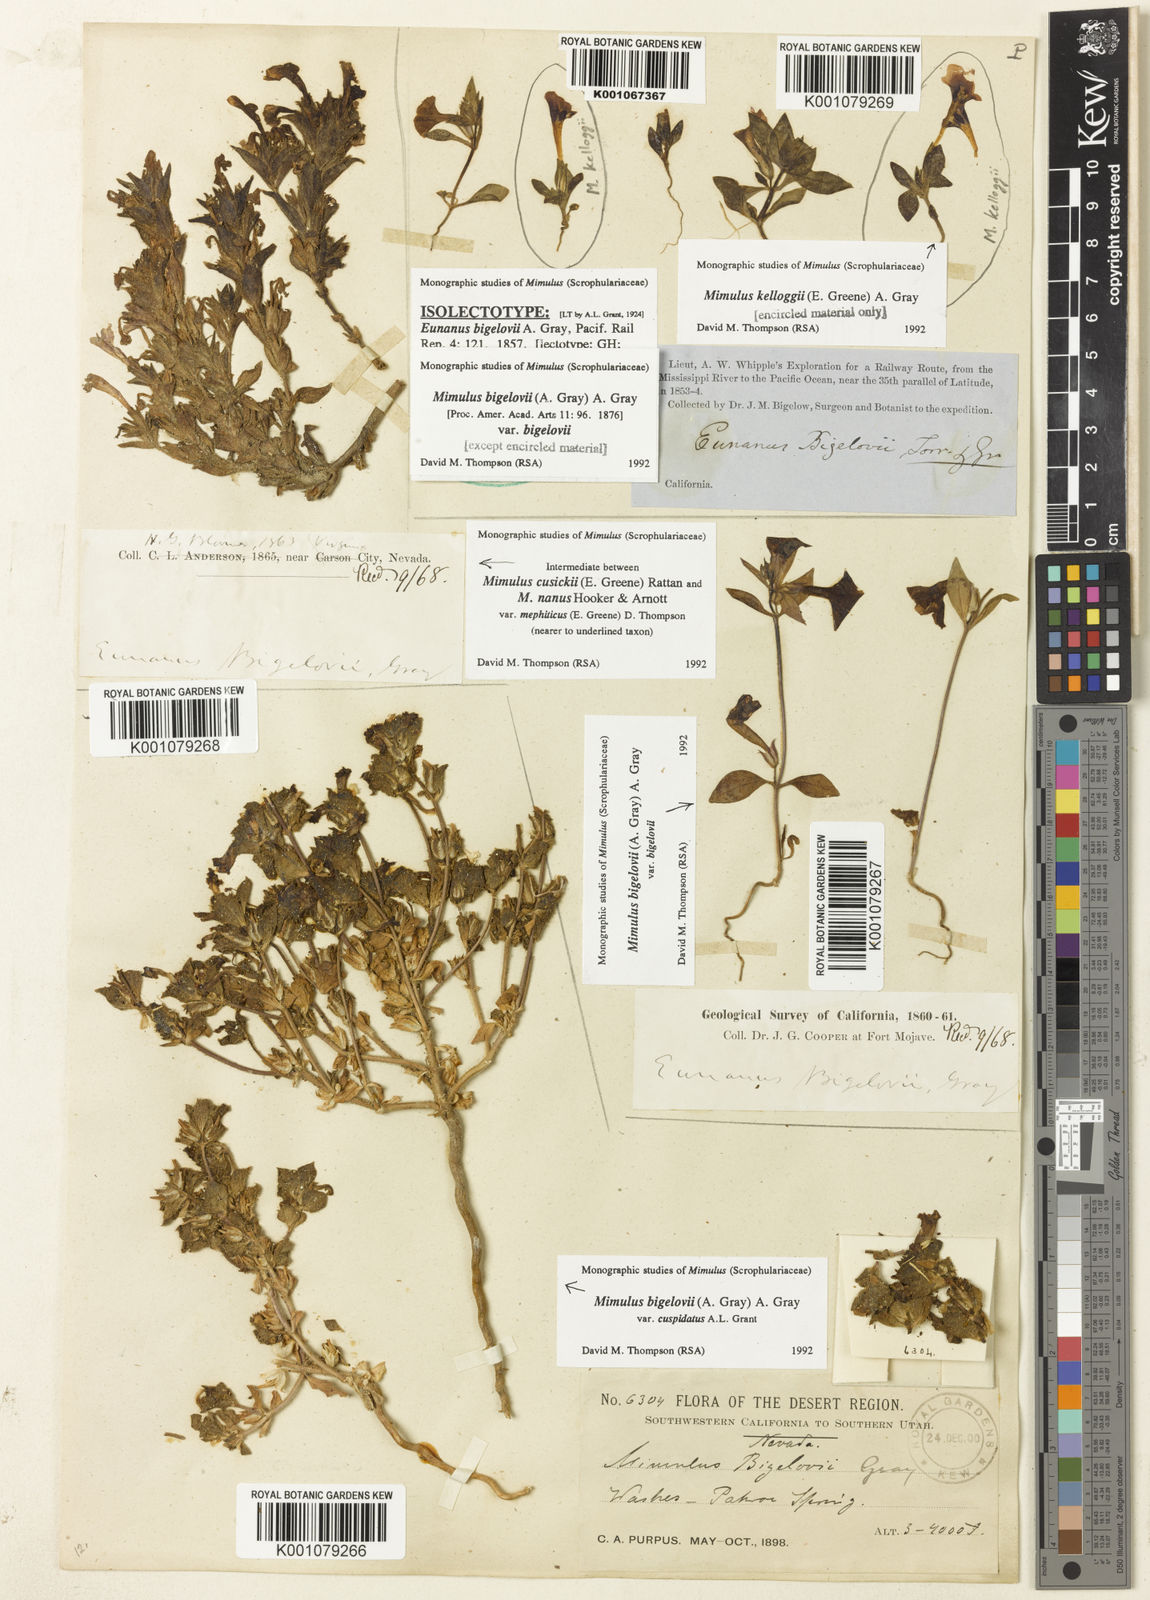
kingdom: Plantae
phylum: Tracheophyta
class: Magnoliopsida
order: Lamiales
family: Phrymaceae
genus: Diplacus
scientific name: Diplacus bigelovii
